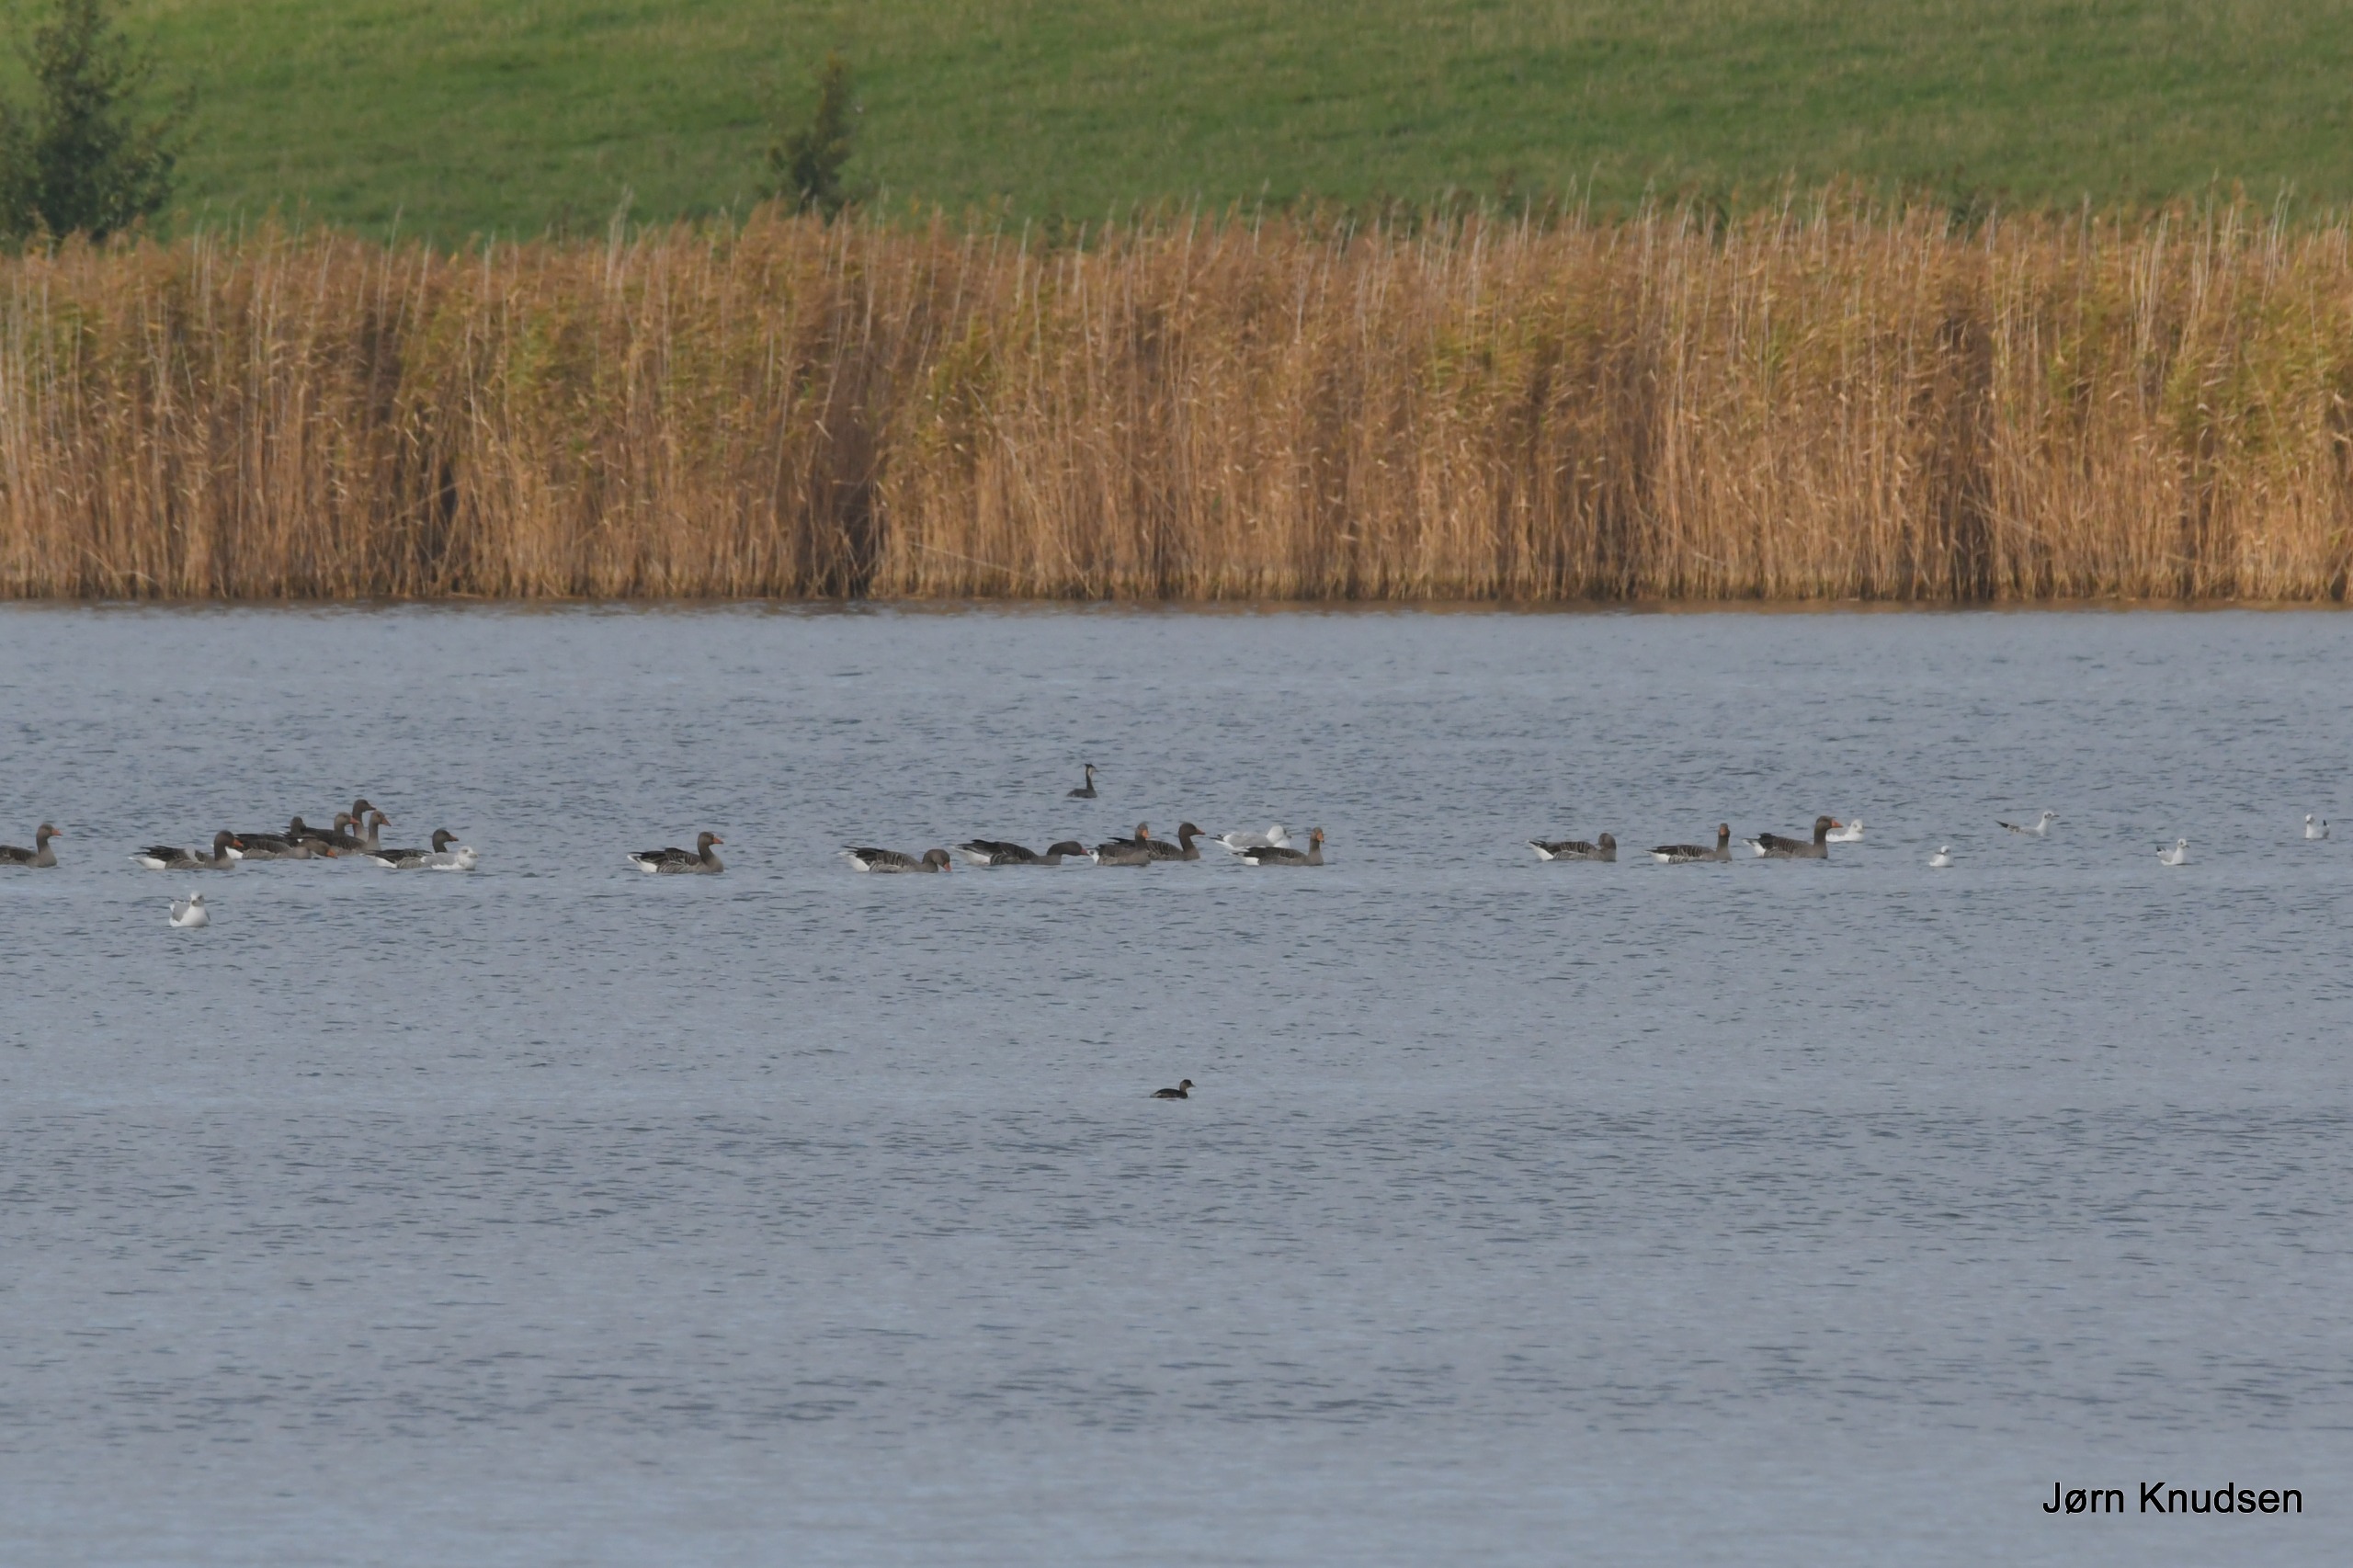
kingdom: Animalia
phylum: Chordata
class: Aves
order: Anseriformes
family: Anatidae
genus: Anser
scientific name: Anser anser
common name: Grågås
